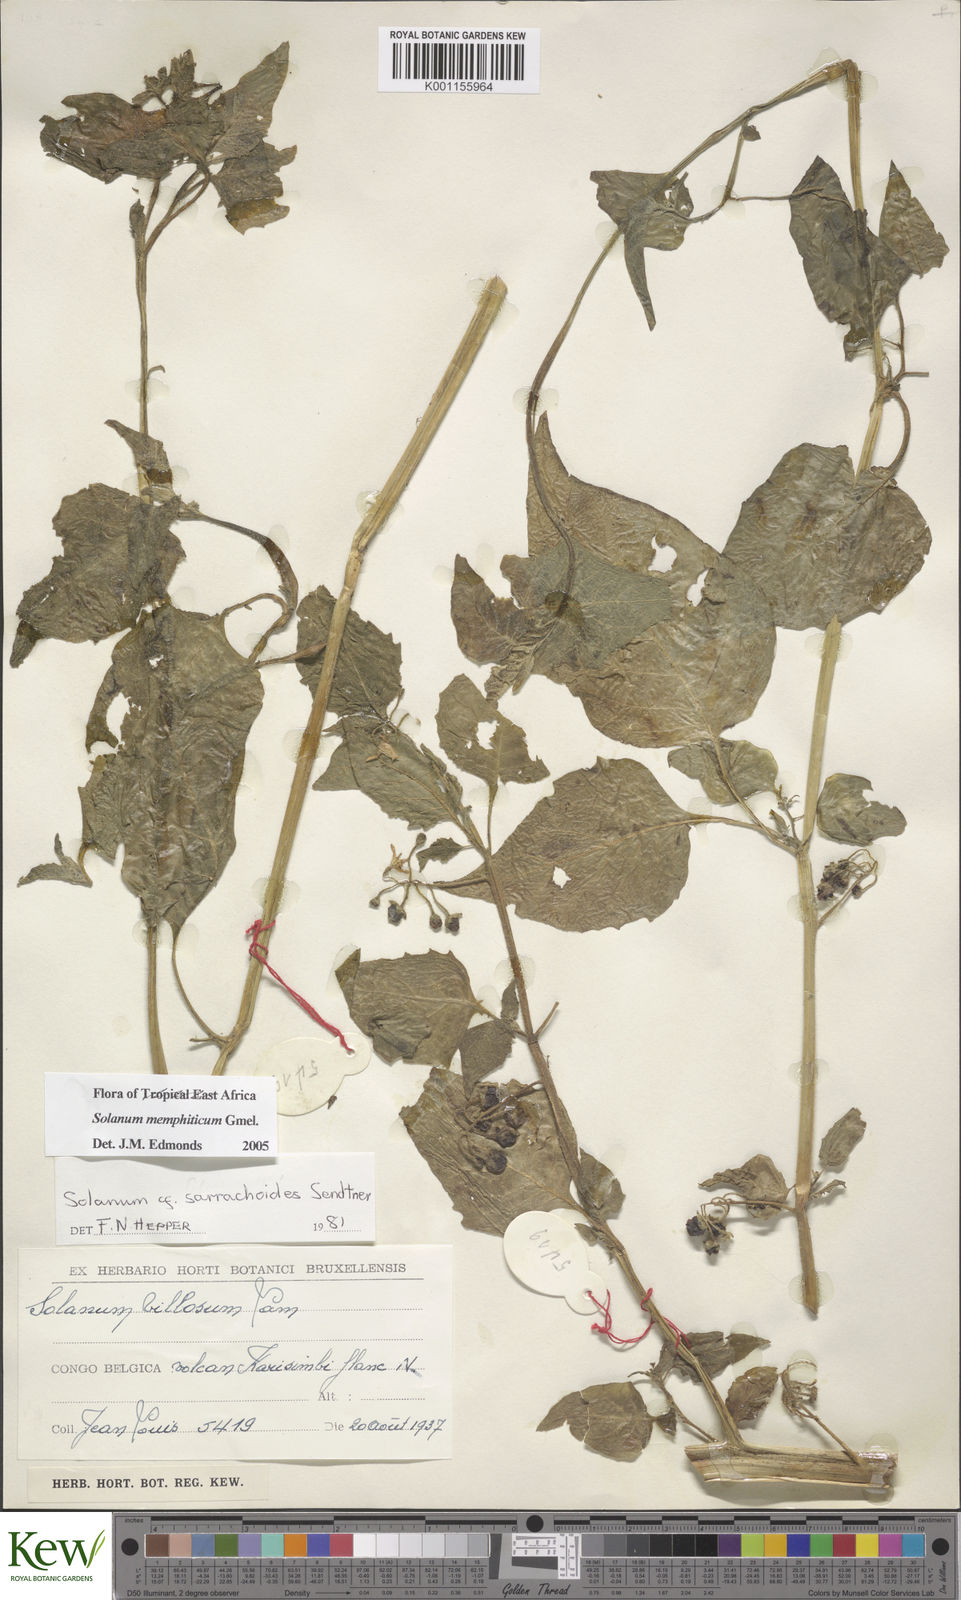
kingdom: Plantae
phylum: Tracheophyta
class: Magnoliopsida
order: Solanales
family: Solanaceae
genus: Solanum
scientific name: Solanum tarderemotum
